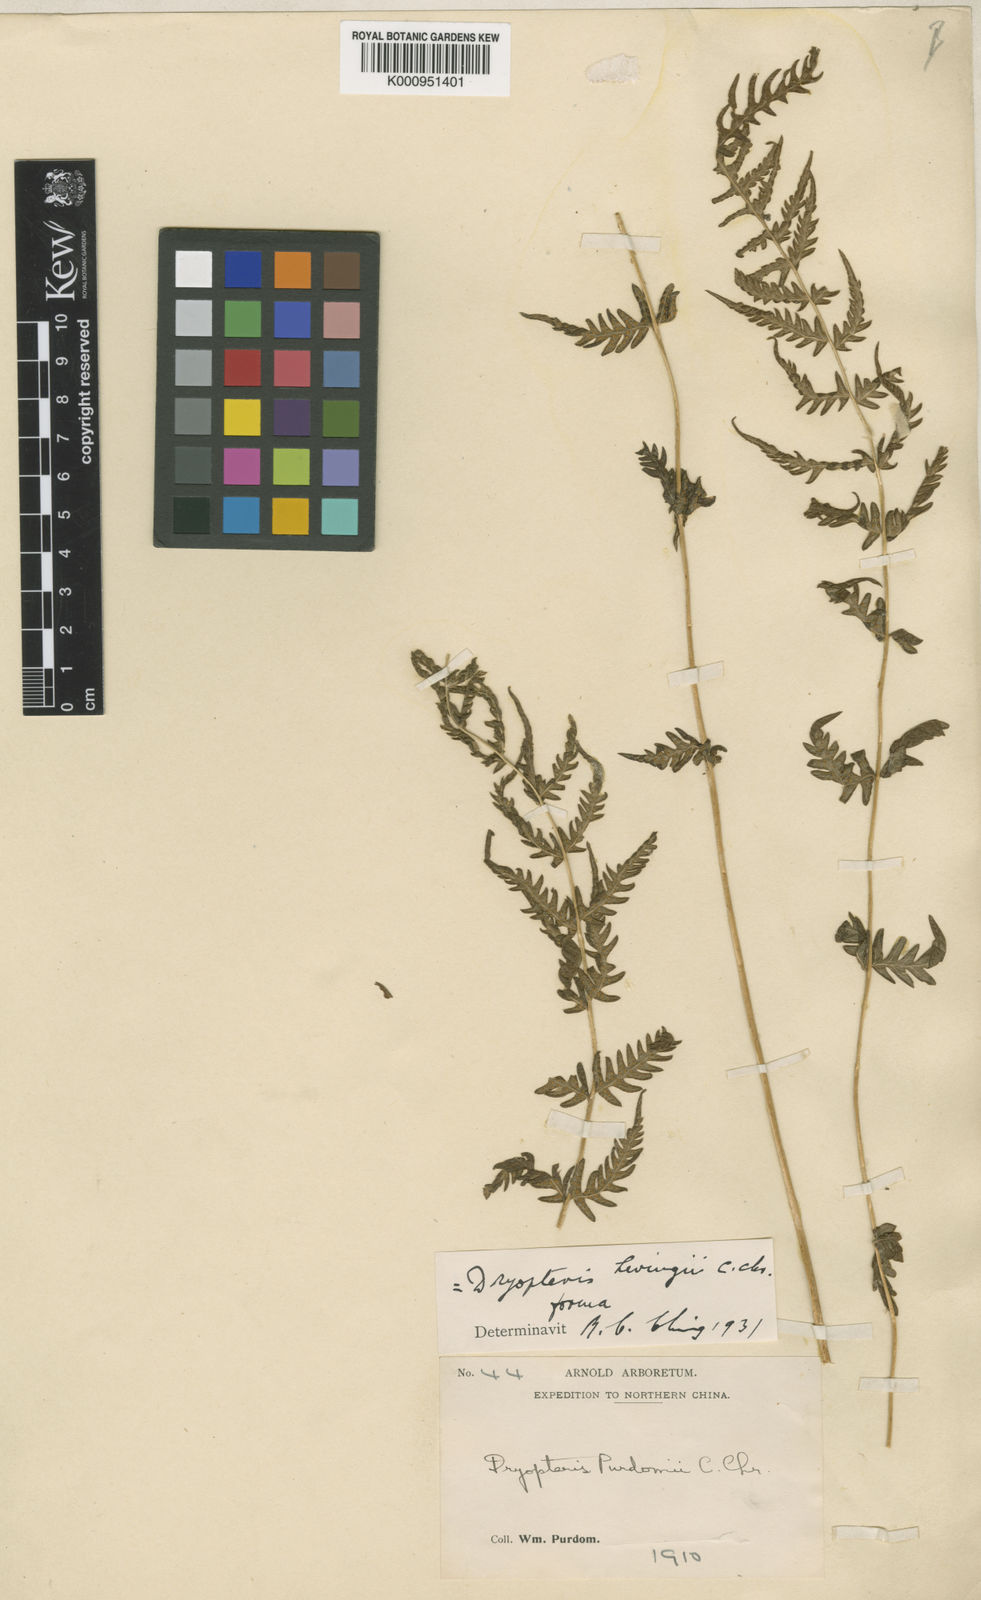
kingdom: Plantae
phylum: Tracheophyta
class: Polypodiopsida
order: Polypodiales
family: Thelypteridaceae
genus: Pseudophegopteris
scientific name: Pseudophegopteris levingei
